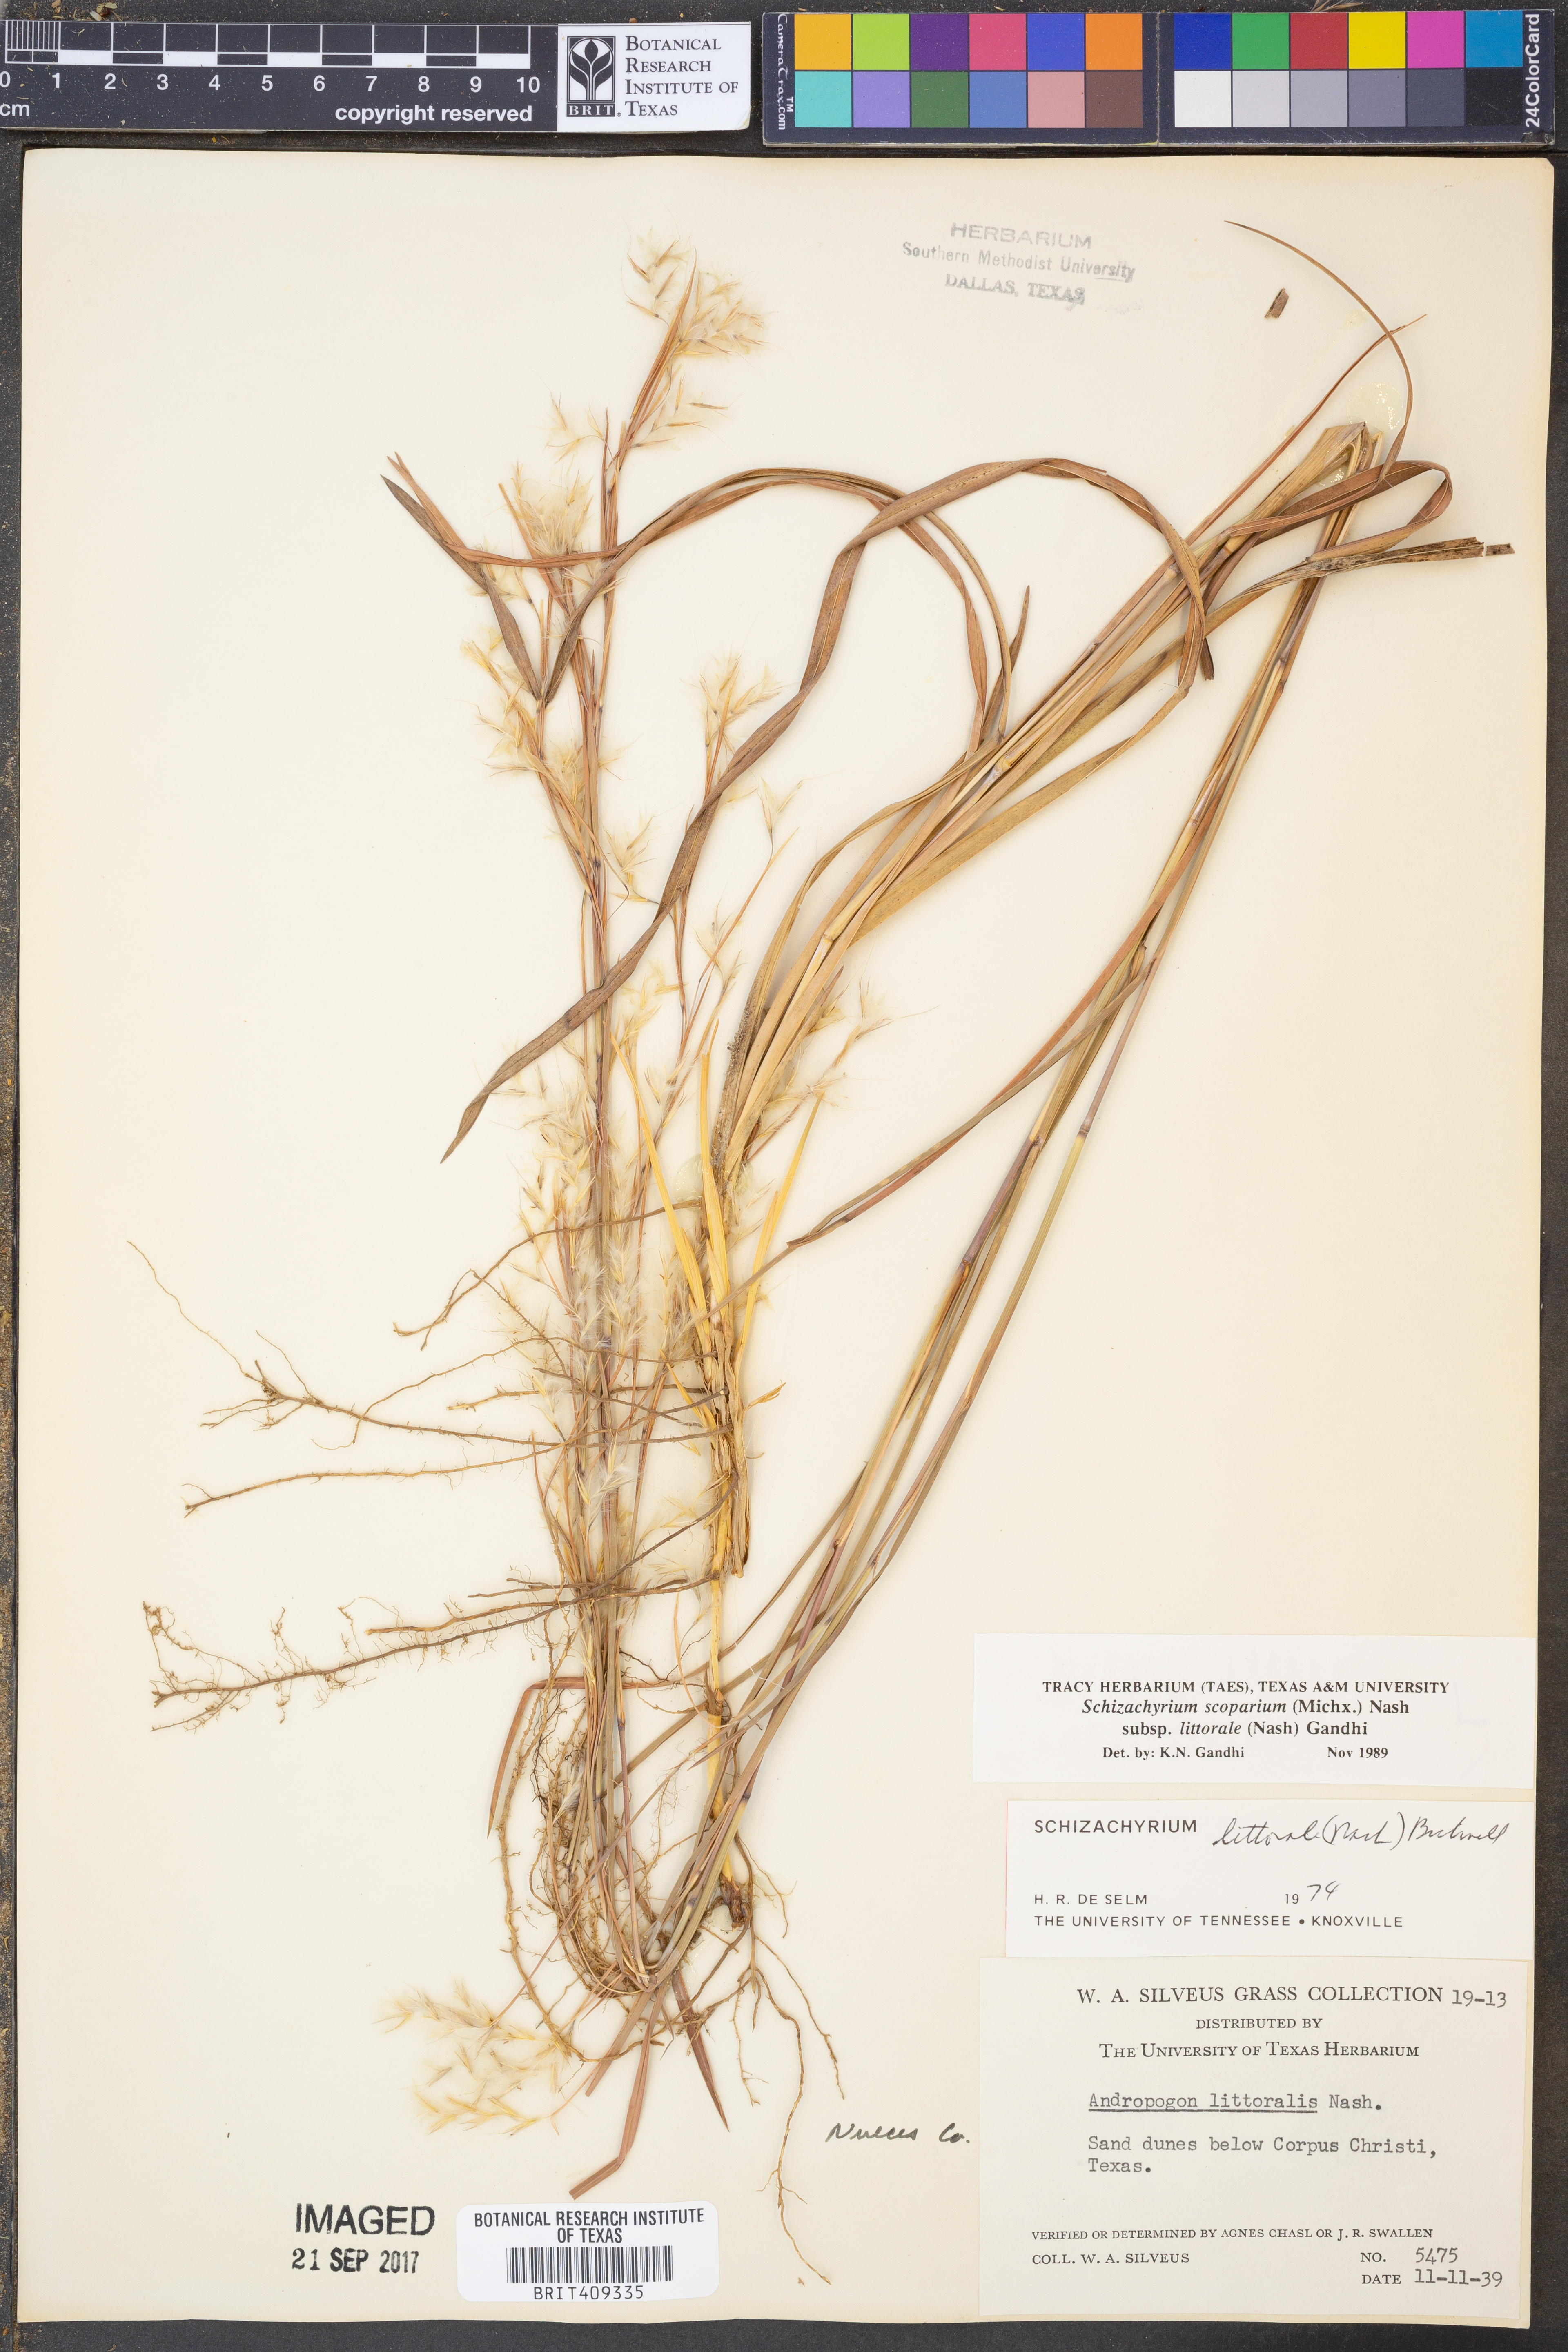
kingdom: Plantae
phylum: Tracheophyta
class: Liliopsida
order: Poales
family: Poaceae
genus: Schizachyrium
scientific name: Schizachyrium scoparium
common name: Little bluestem
